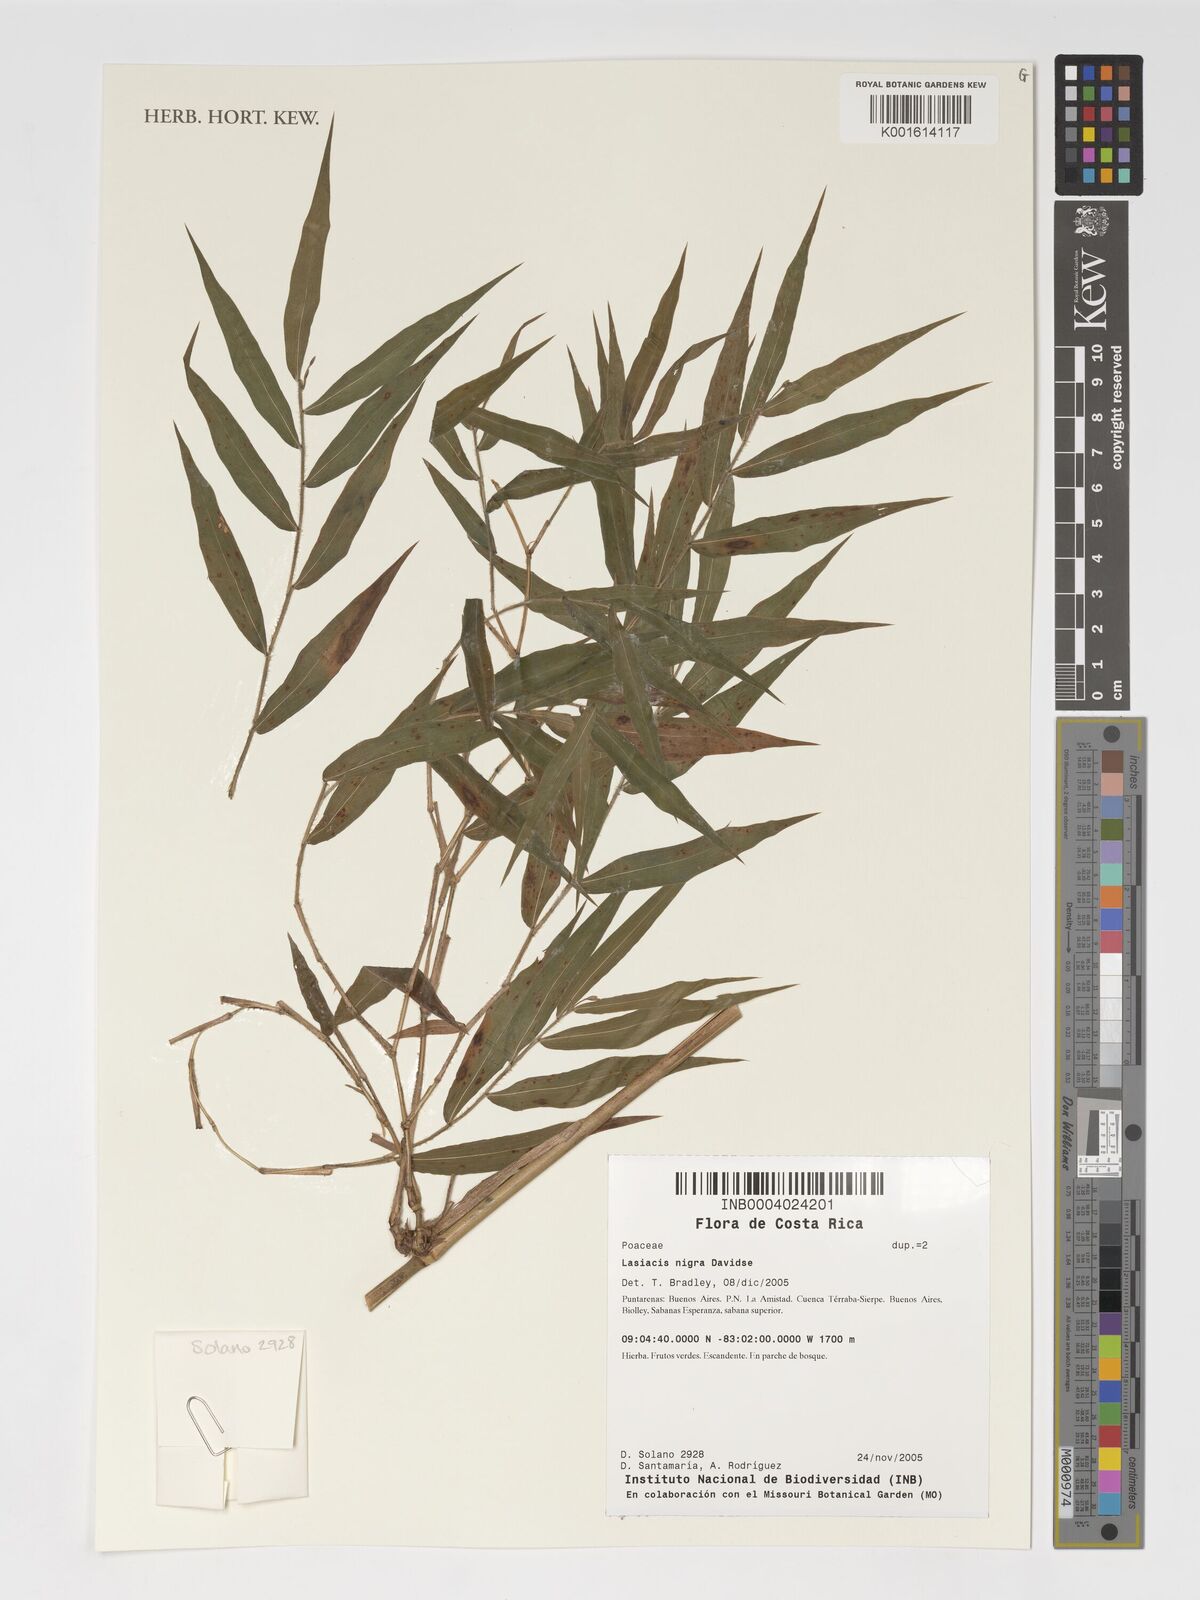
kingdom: Plantae
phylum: Tracheophyta
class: Liliopsida
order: Poales
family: Poaceae
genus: Lasiacis
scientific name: Lasiacis nigra
